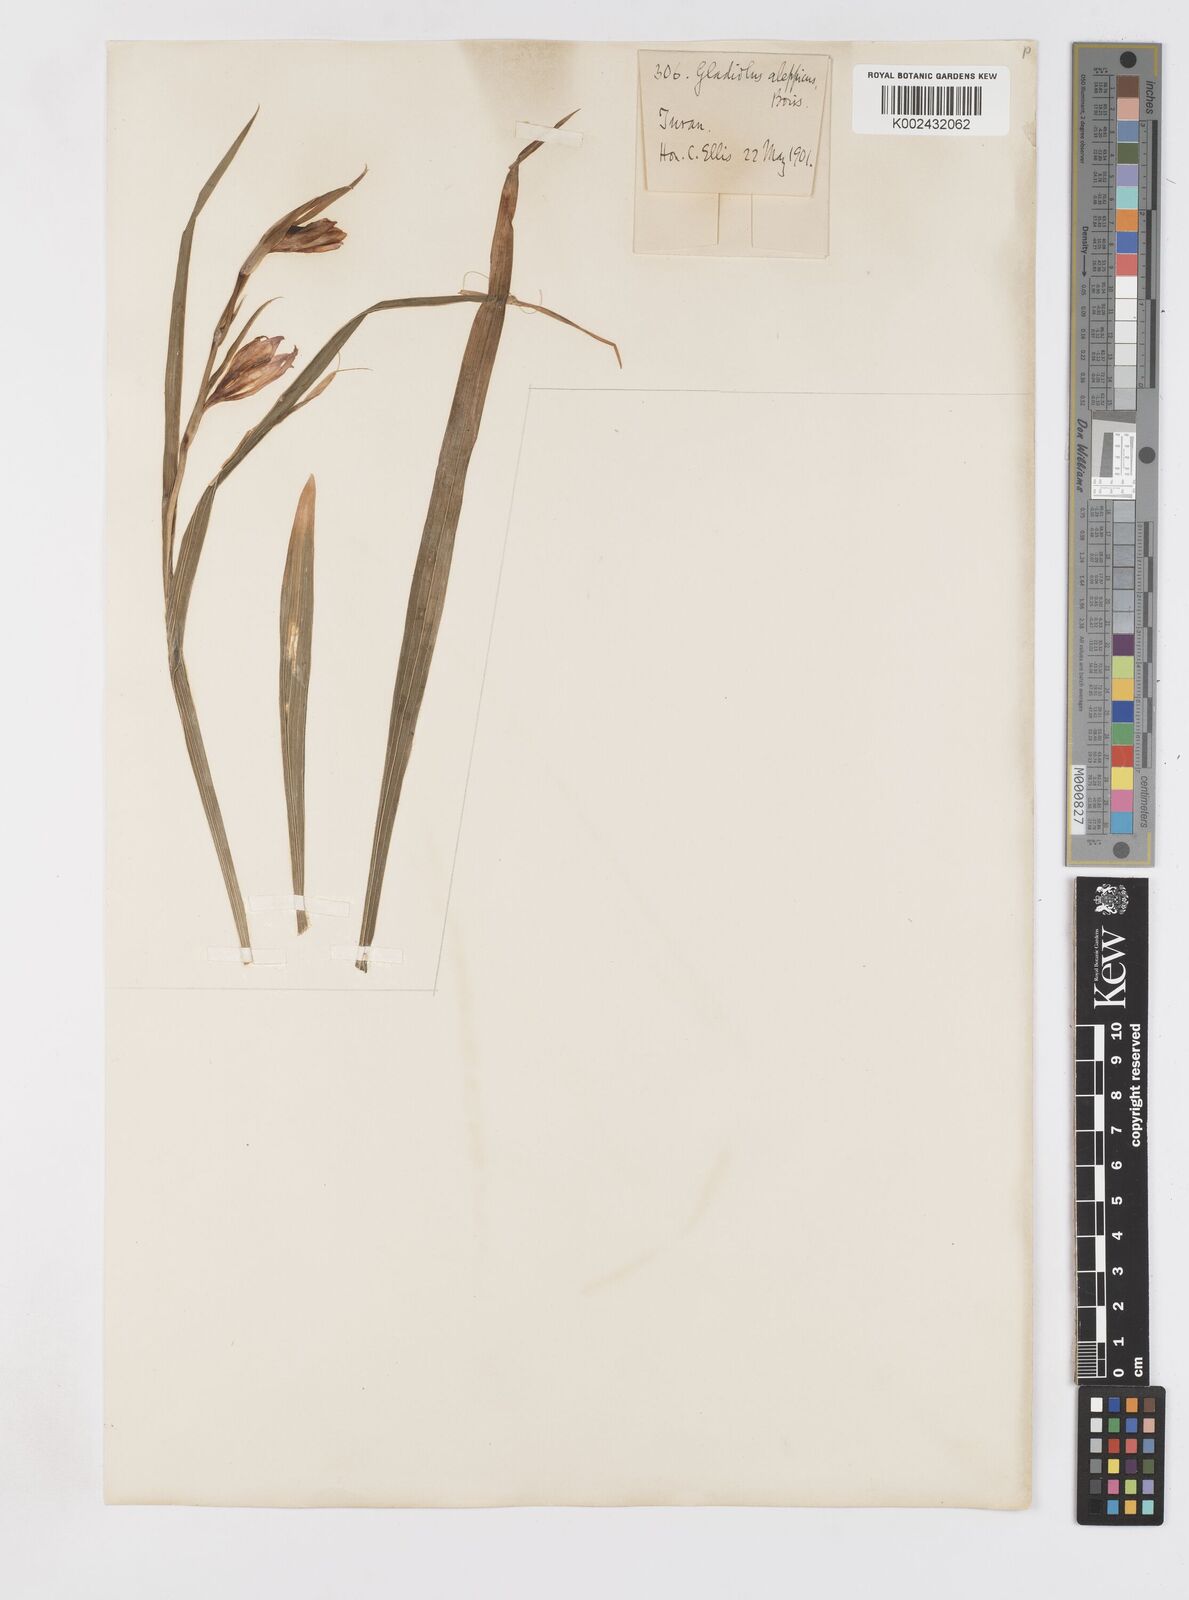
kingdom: Plantae
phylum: Tracheophyta
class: Liliopsida
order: Asparagales
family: Iridaceae
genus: Gladiolus
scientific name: Gladiolus atroviolaceus
